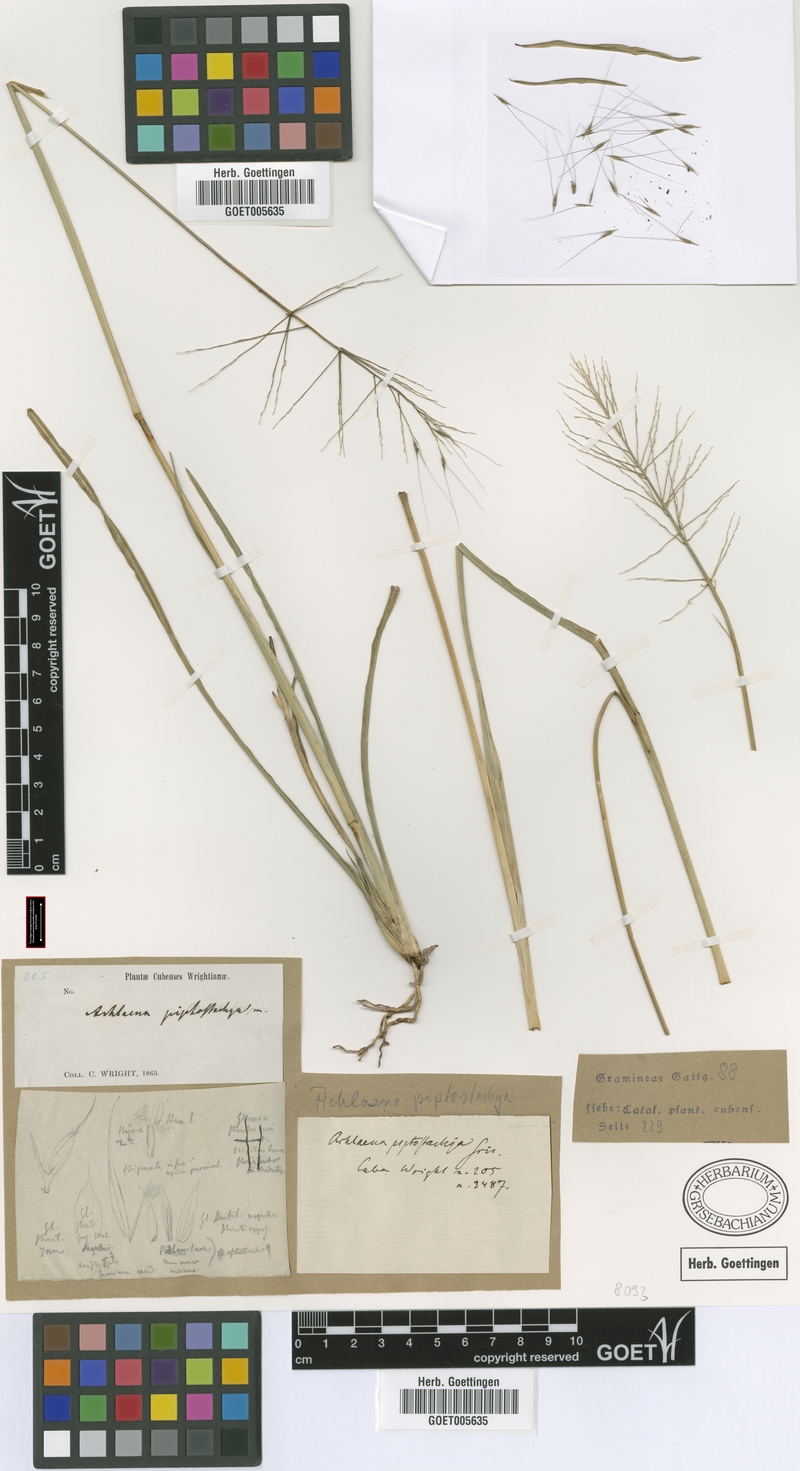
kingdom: Plantae
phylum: Tracheophyta
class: Liliopsida
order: Poales
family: Poaceae
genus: Arthropogon
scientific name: Arthropogon piptostachyus
